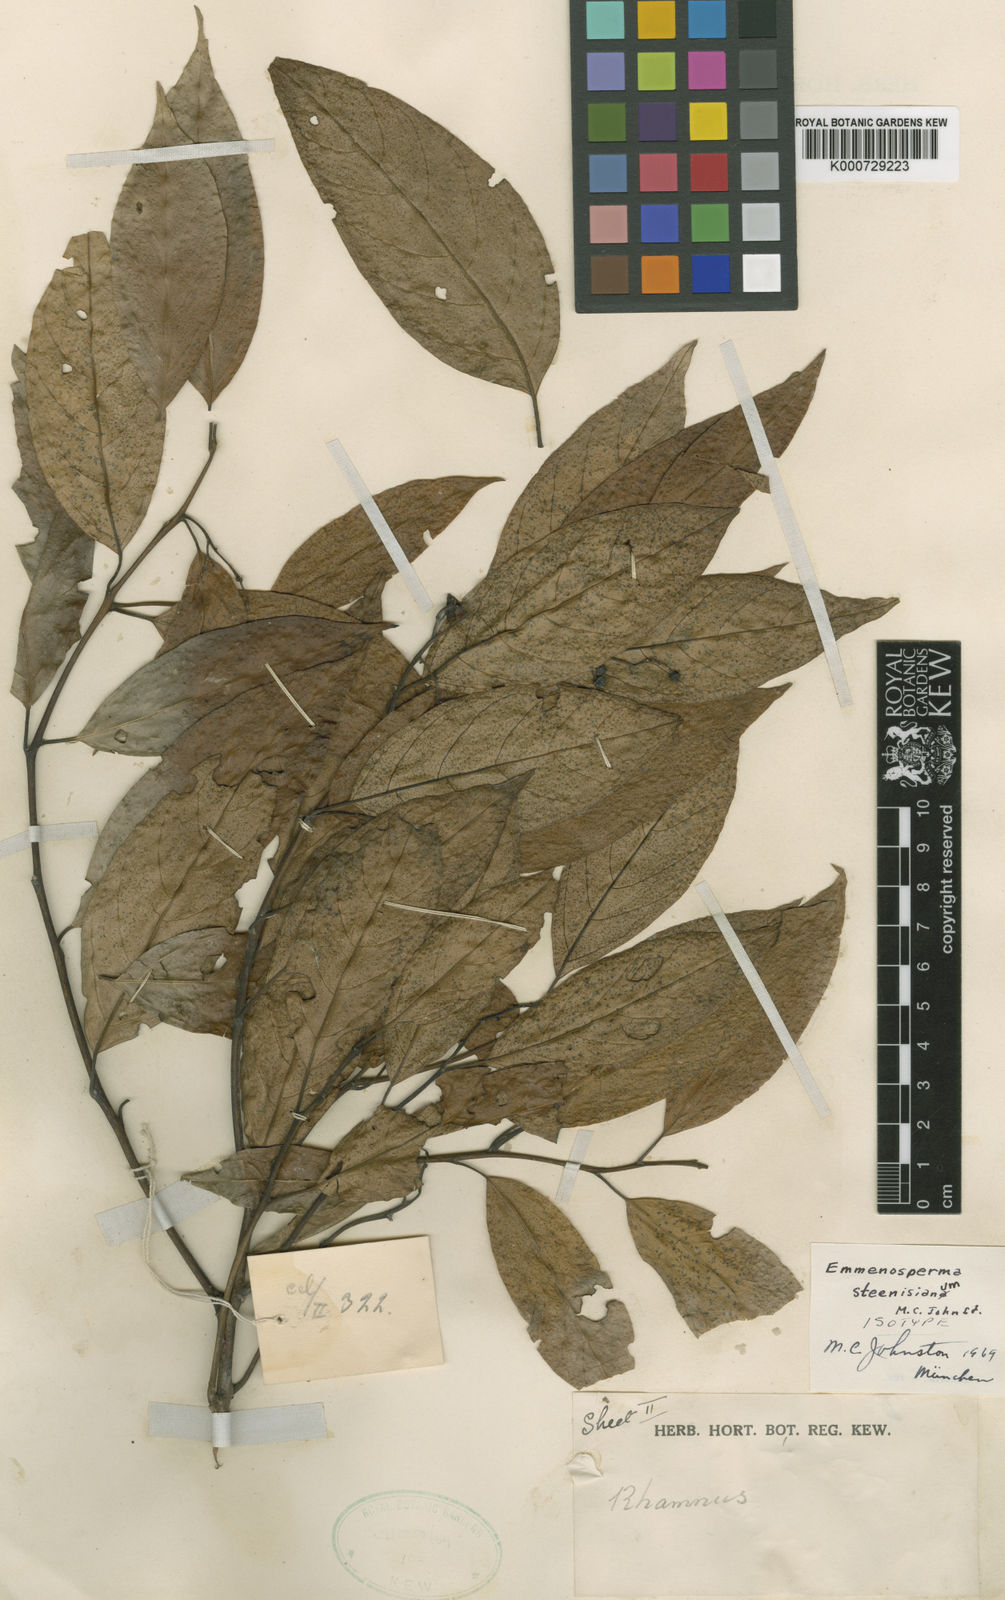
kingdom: Plantae
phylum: Tracheophyta
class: Magnoliopsida
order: Rosales
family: Rhamnaceae
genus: Emmenosperma
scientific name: Emmenosperma
